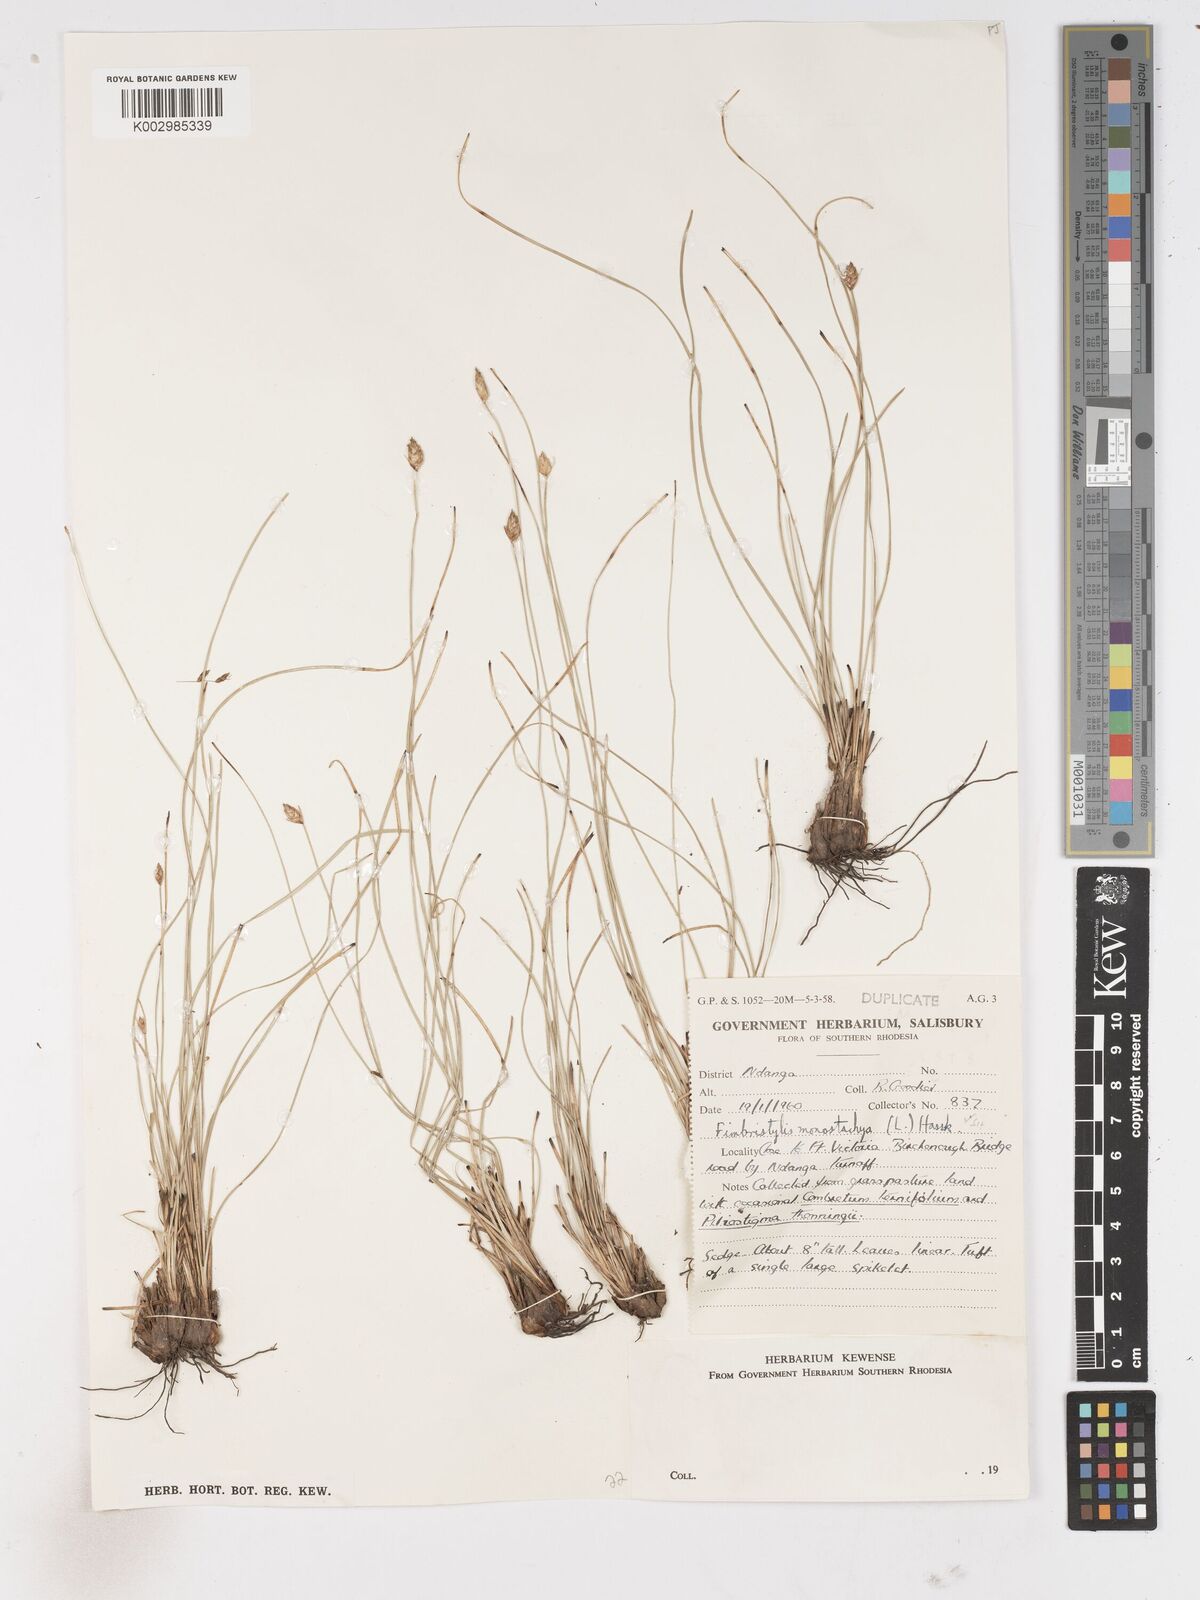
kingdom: Plantae
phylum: Tracheophyta
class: Liliopsida
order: Poales
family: Cyperaceae
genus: Abildgaardia
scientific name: Abildgaardia ovata
